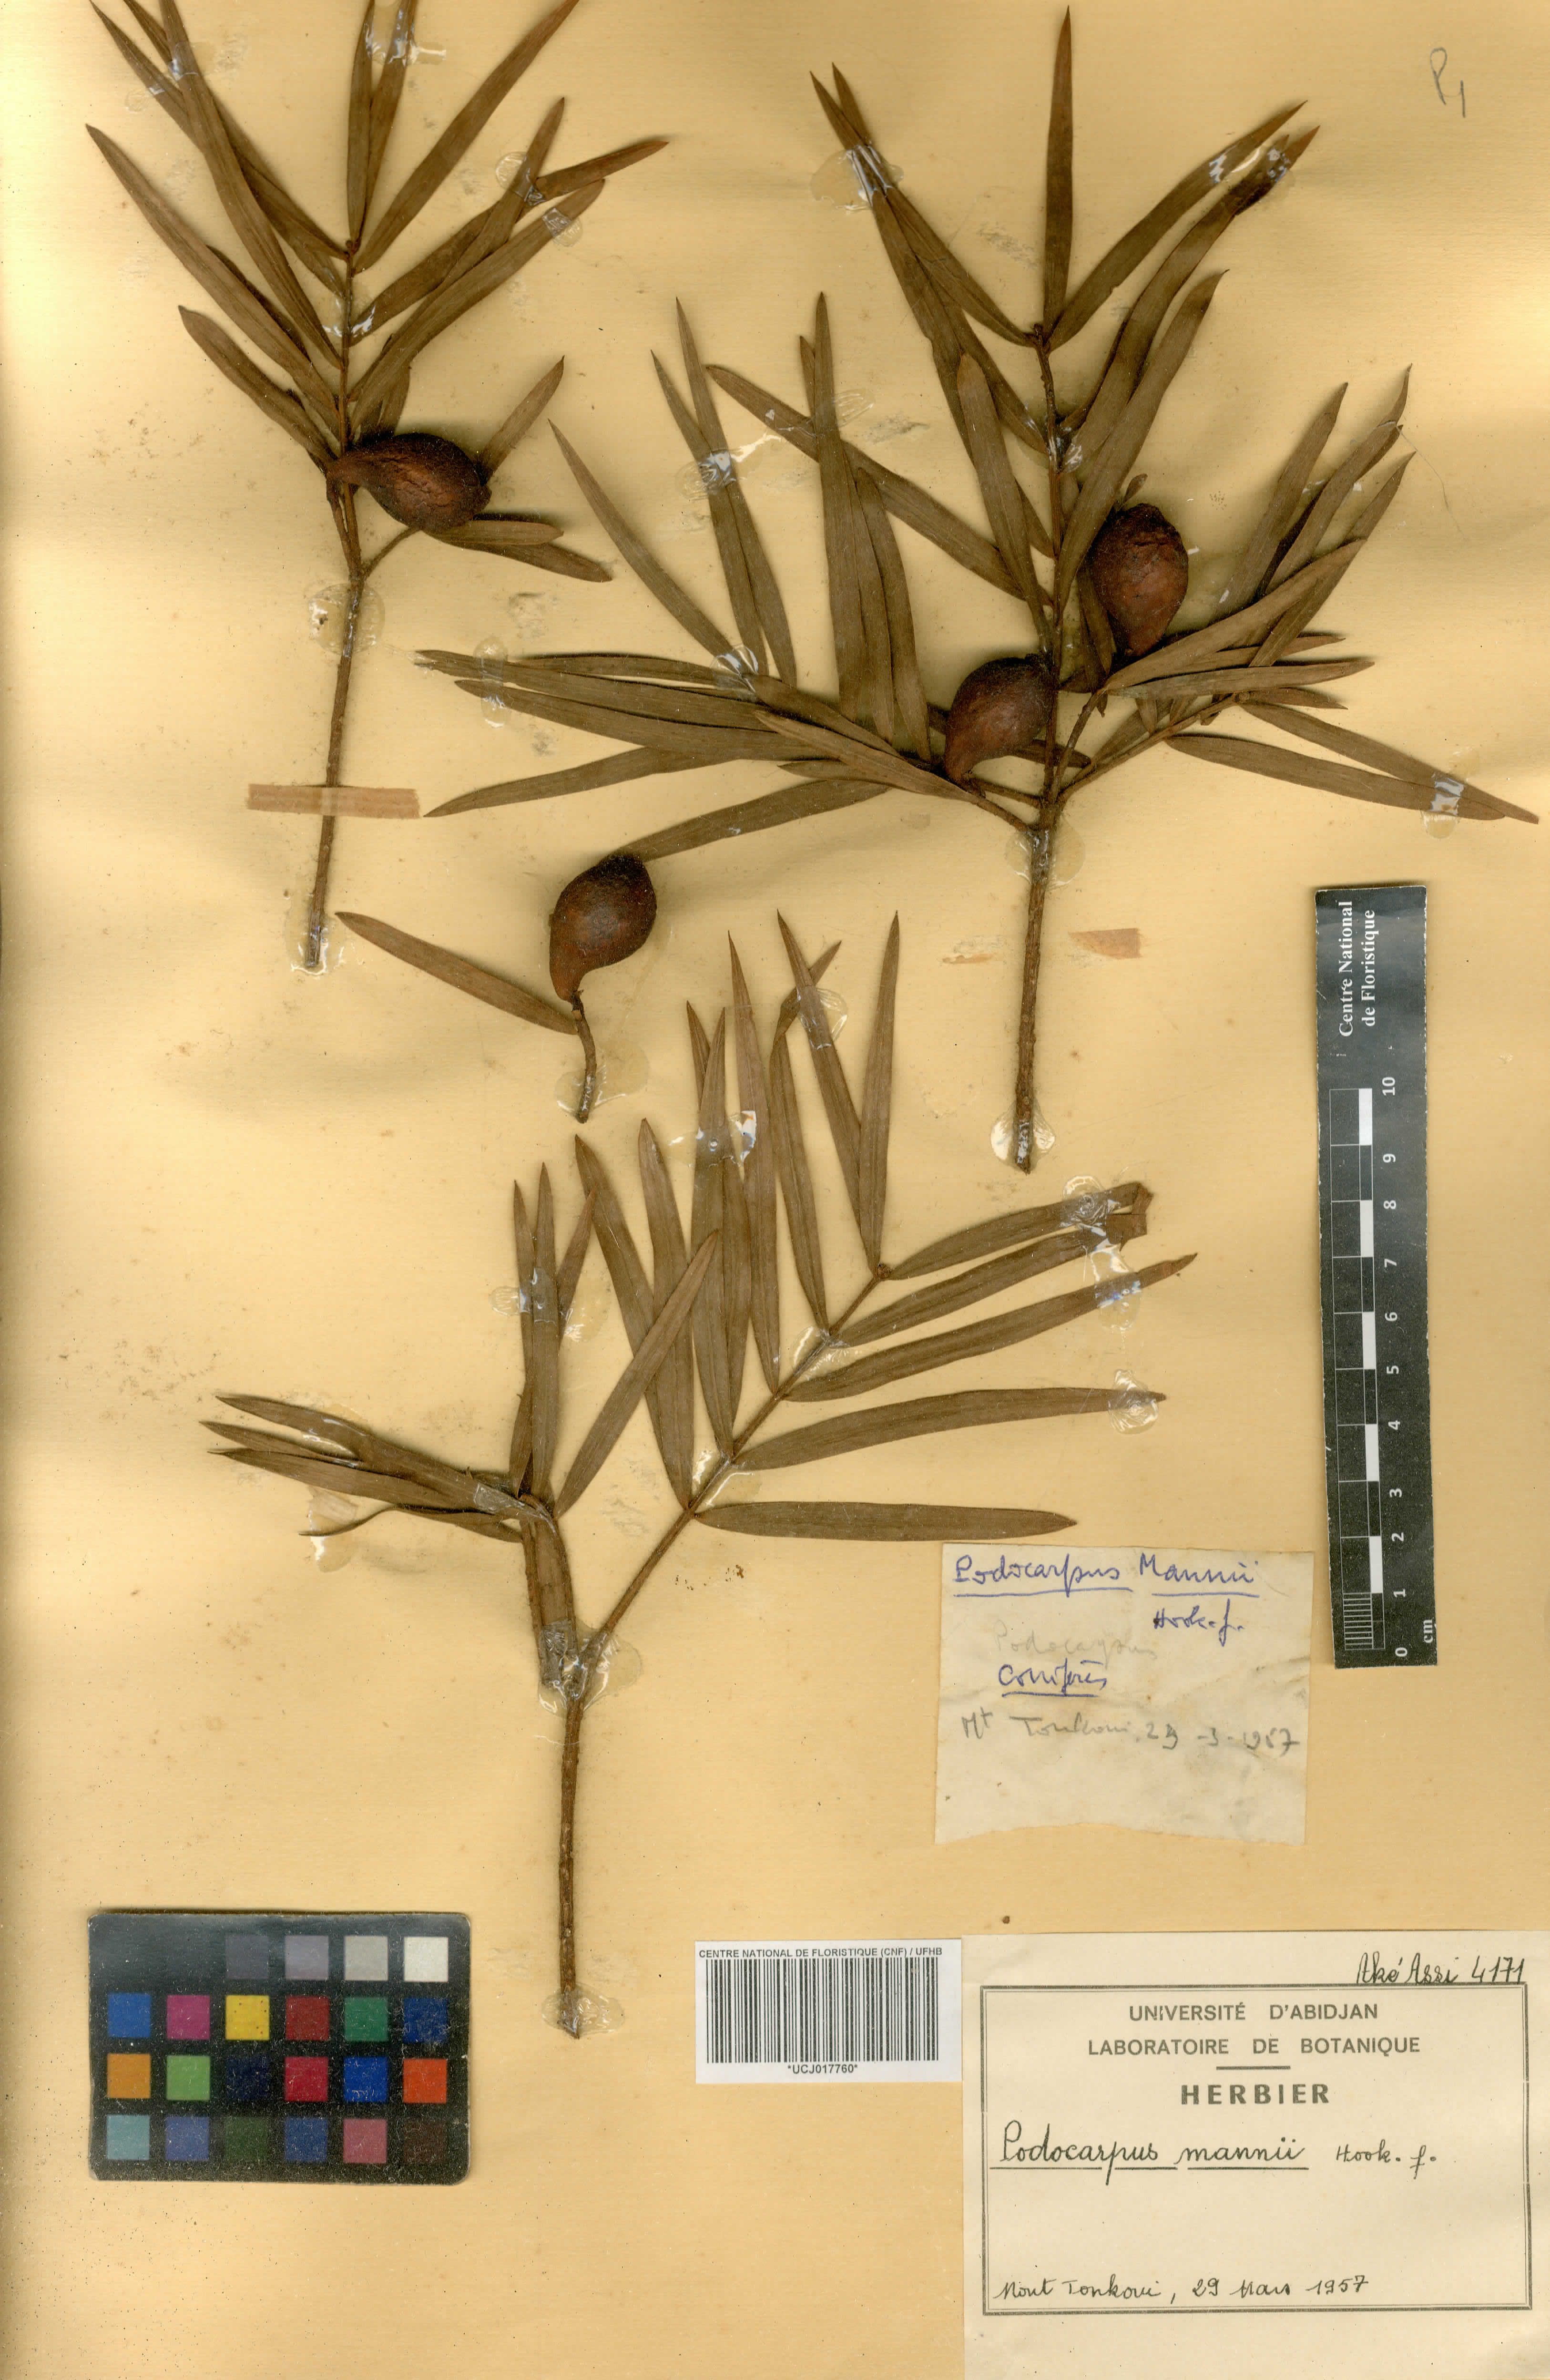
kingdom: Plantae
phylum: Tracheophyta
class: Pinopsida
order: Pinales
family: Podocarpaceae
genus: Afrocarpus
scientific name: Afrocarpus mannii
